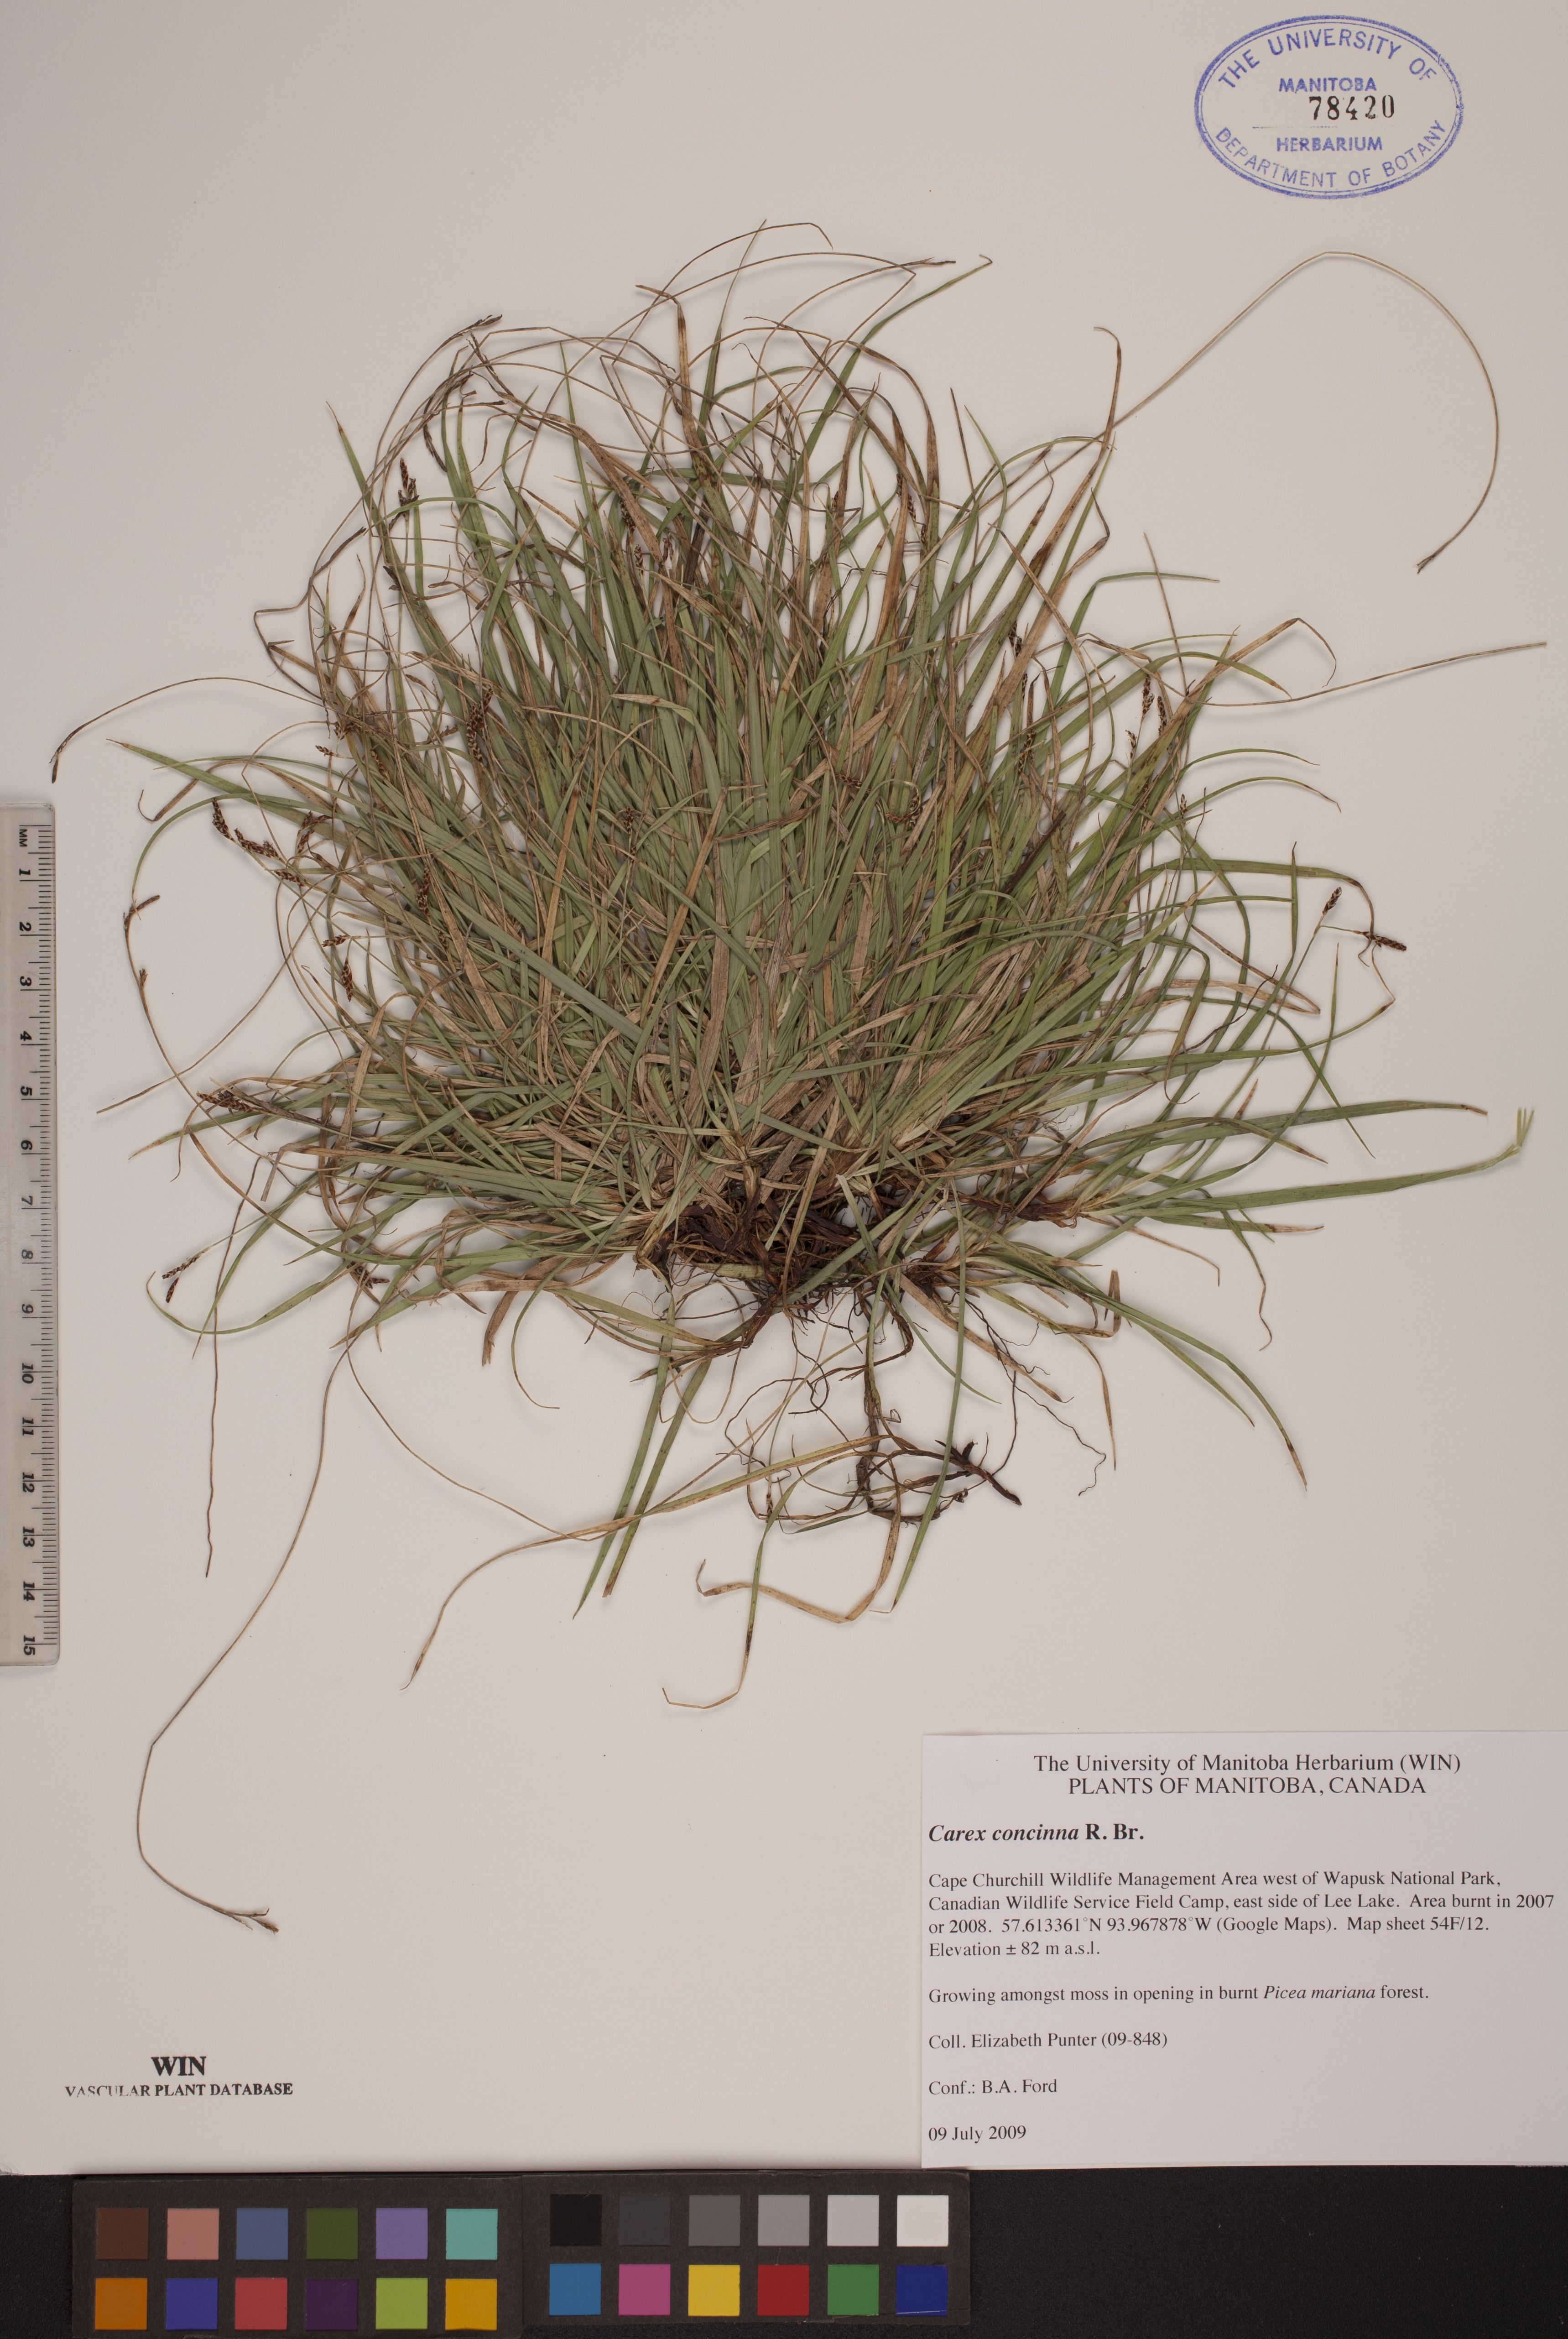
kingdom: Plantae
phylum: Tracheophyta
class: Liliopsida
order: Poales
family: Cyperaceae
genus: Carex
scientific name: Carex concinna
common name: Beautiful sedge
